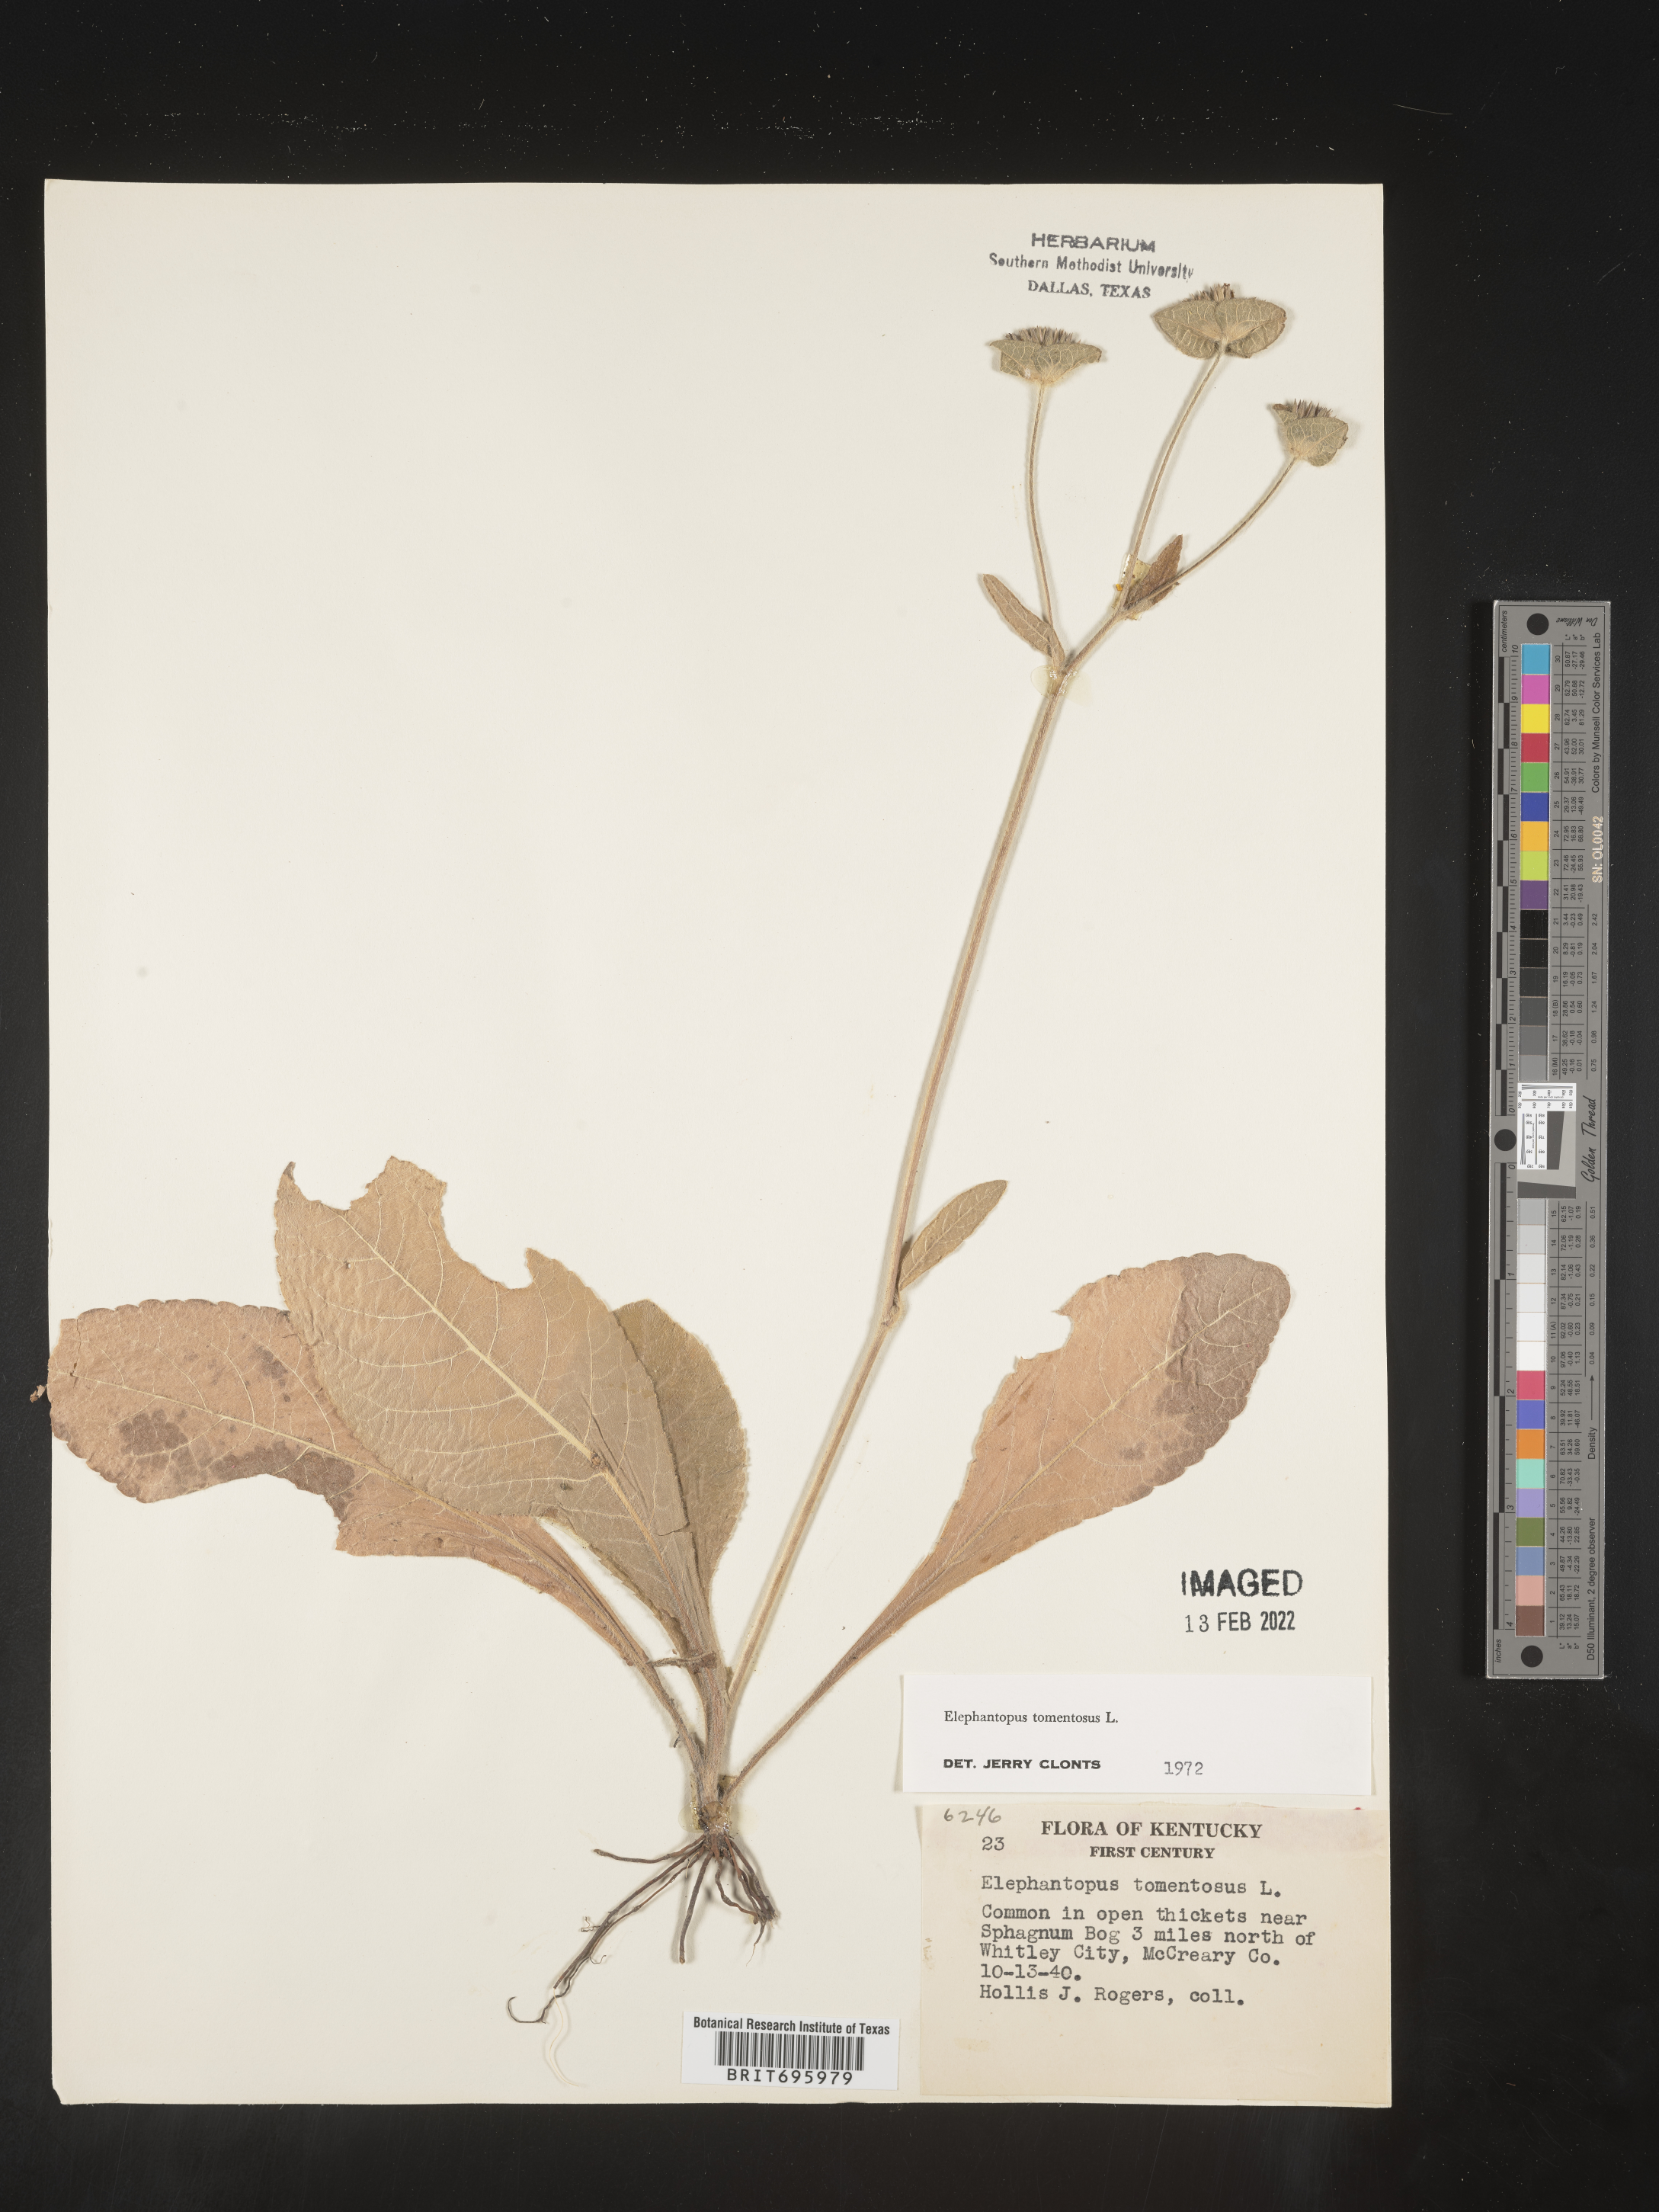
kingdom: Plantae
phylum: Tracheophyta
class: Magnoliopsida
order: Asterales
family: Asteraceae
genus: Elephantopus
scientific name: Elephantopus tomentosus
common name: Tobacco-weed
